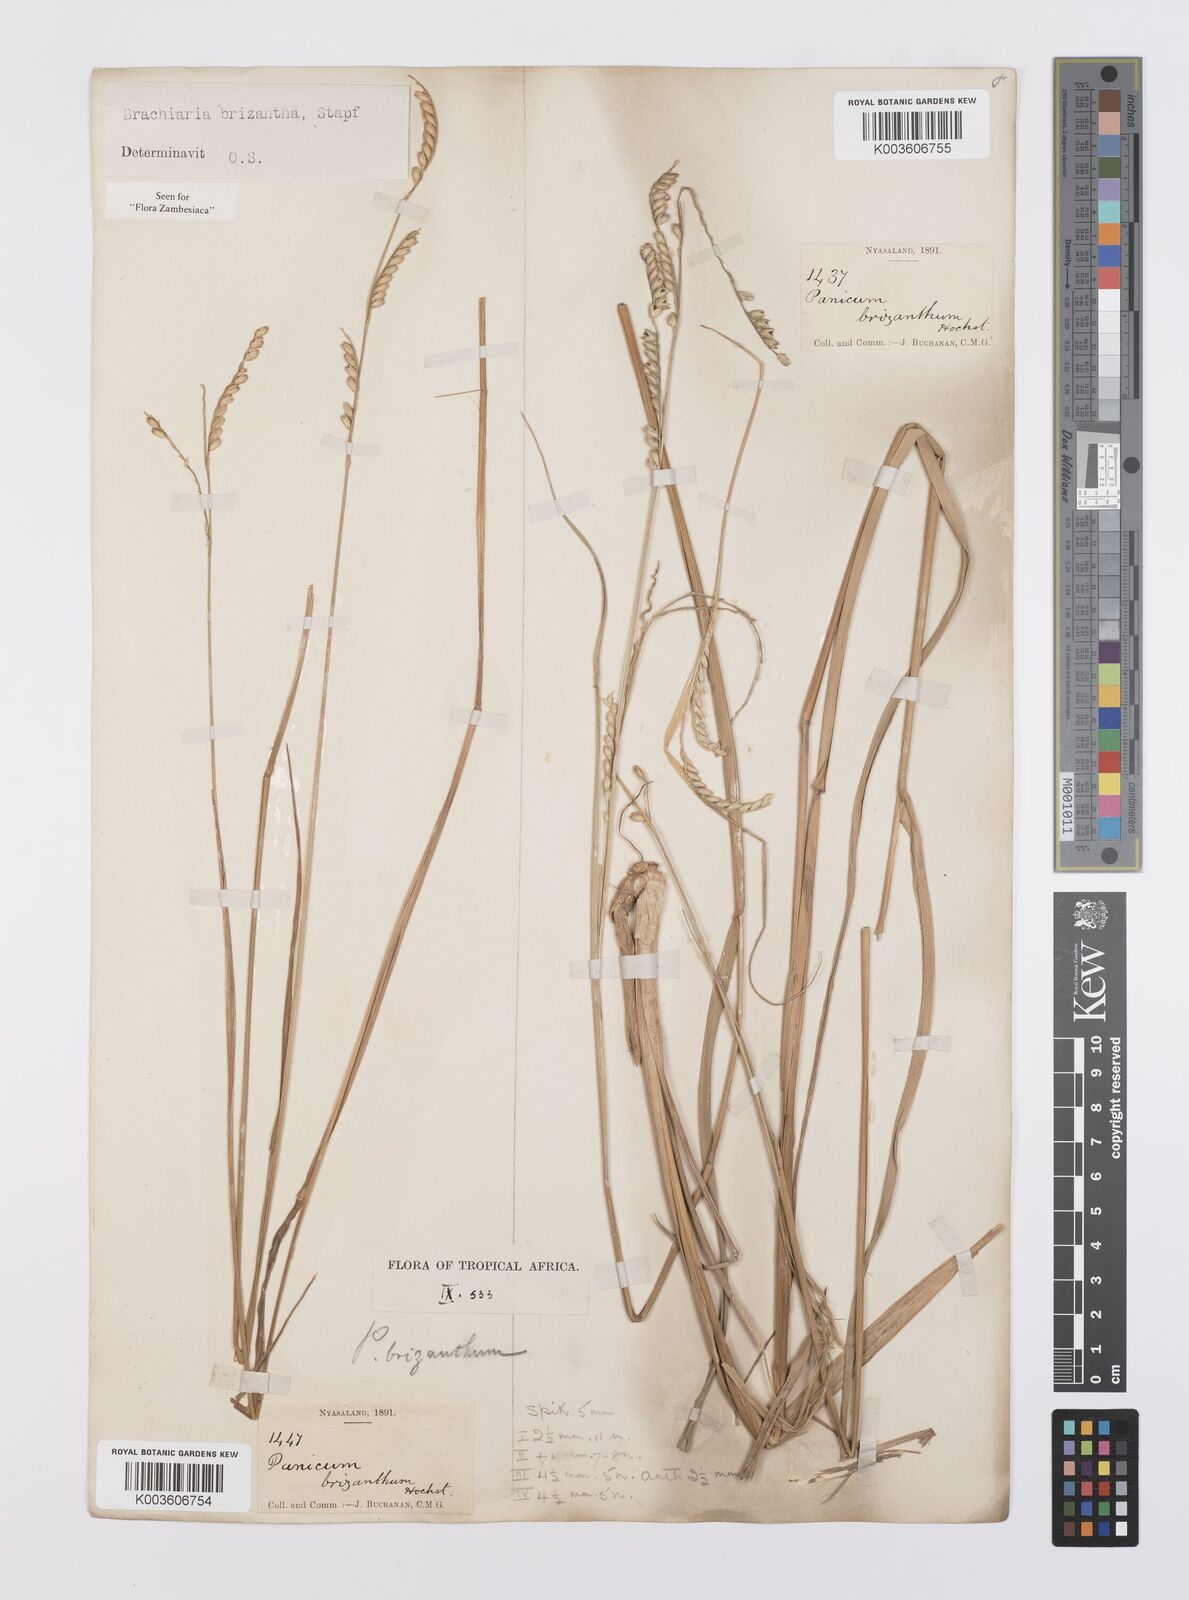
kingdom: Plantae
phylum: Tracheophyta
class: Liliopsida
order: Poales
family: Poaceae
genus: Urochloa
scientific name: Urochloa brizantha
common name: Palisade signalgrass
